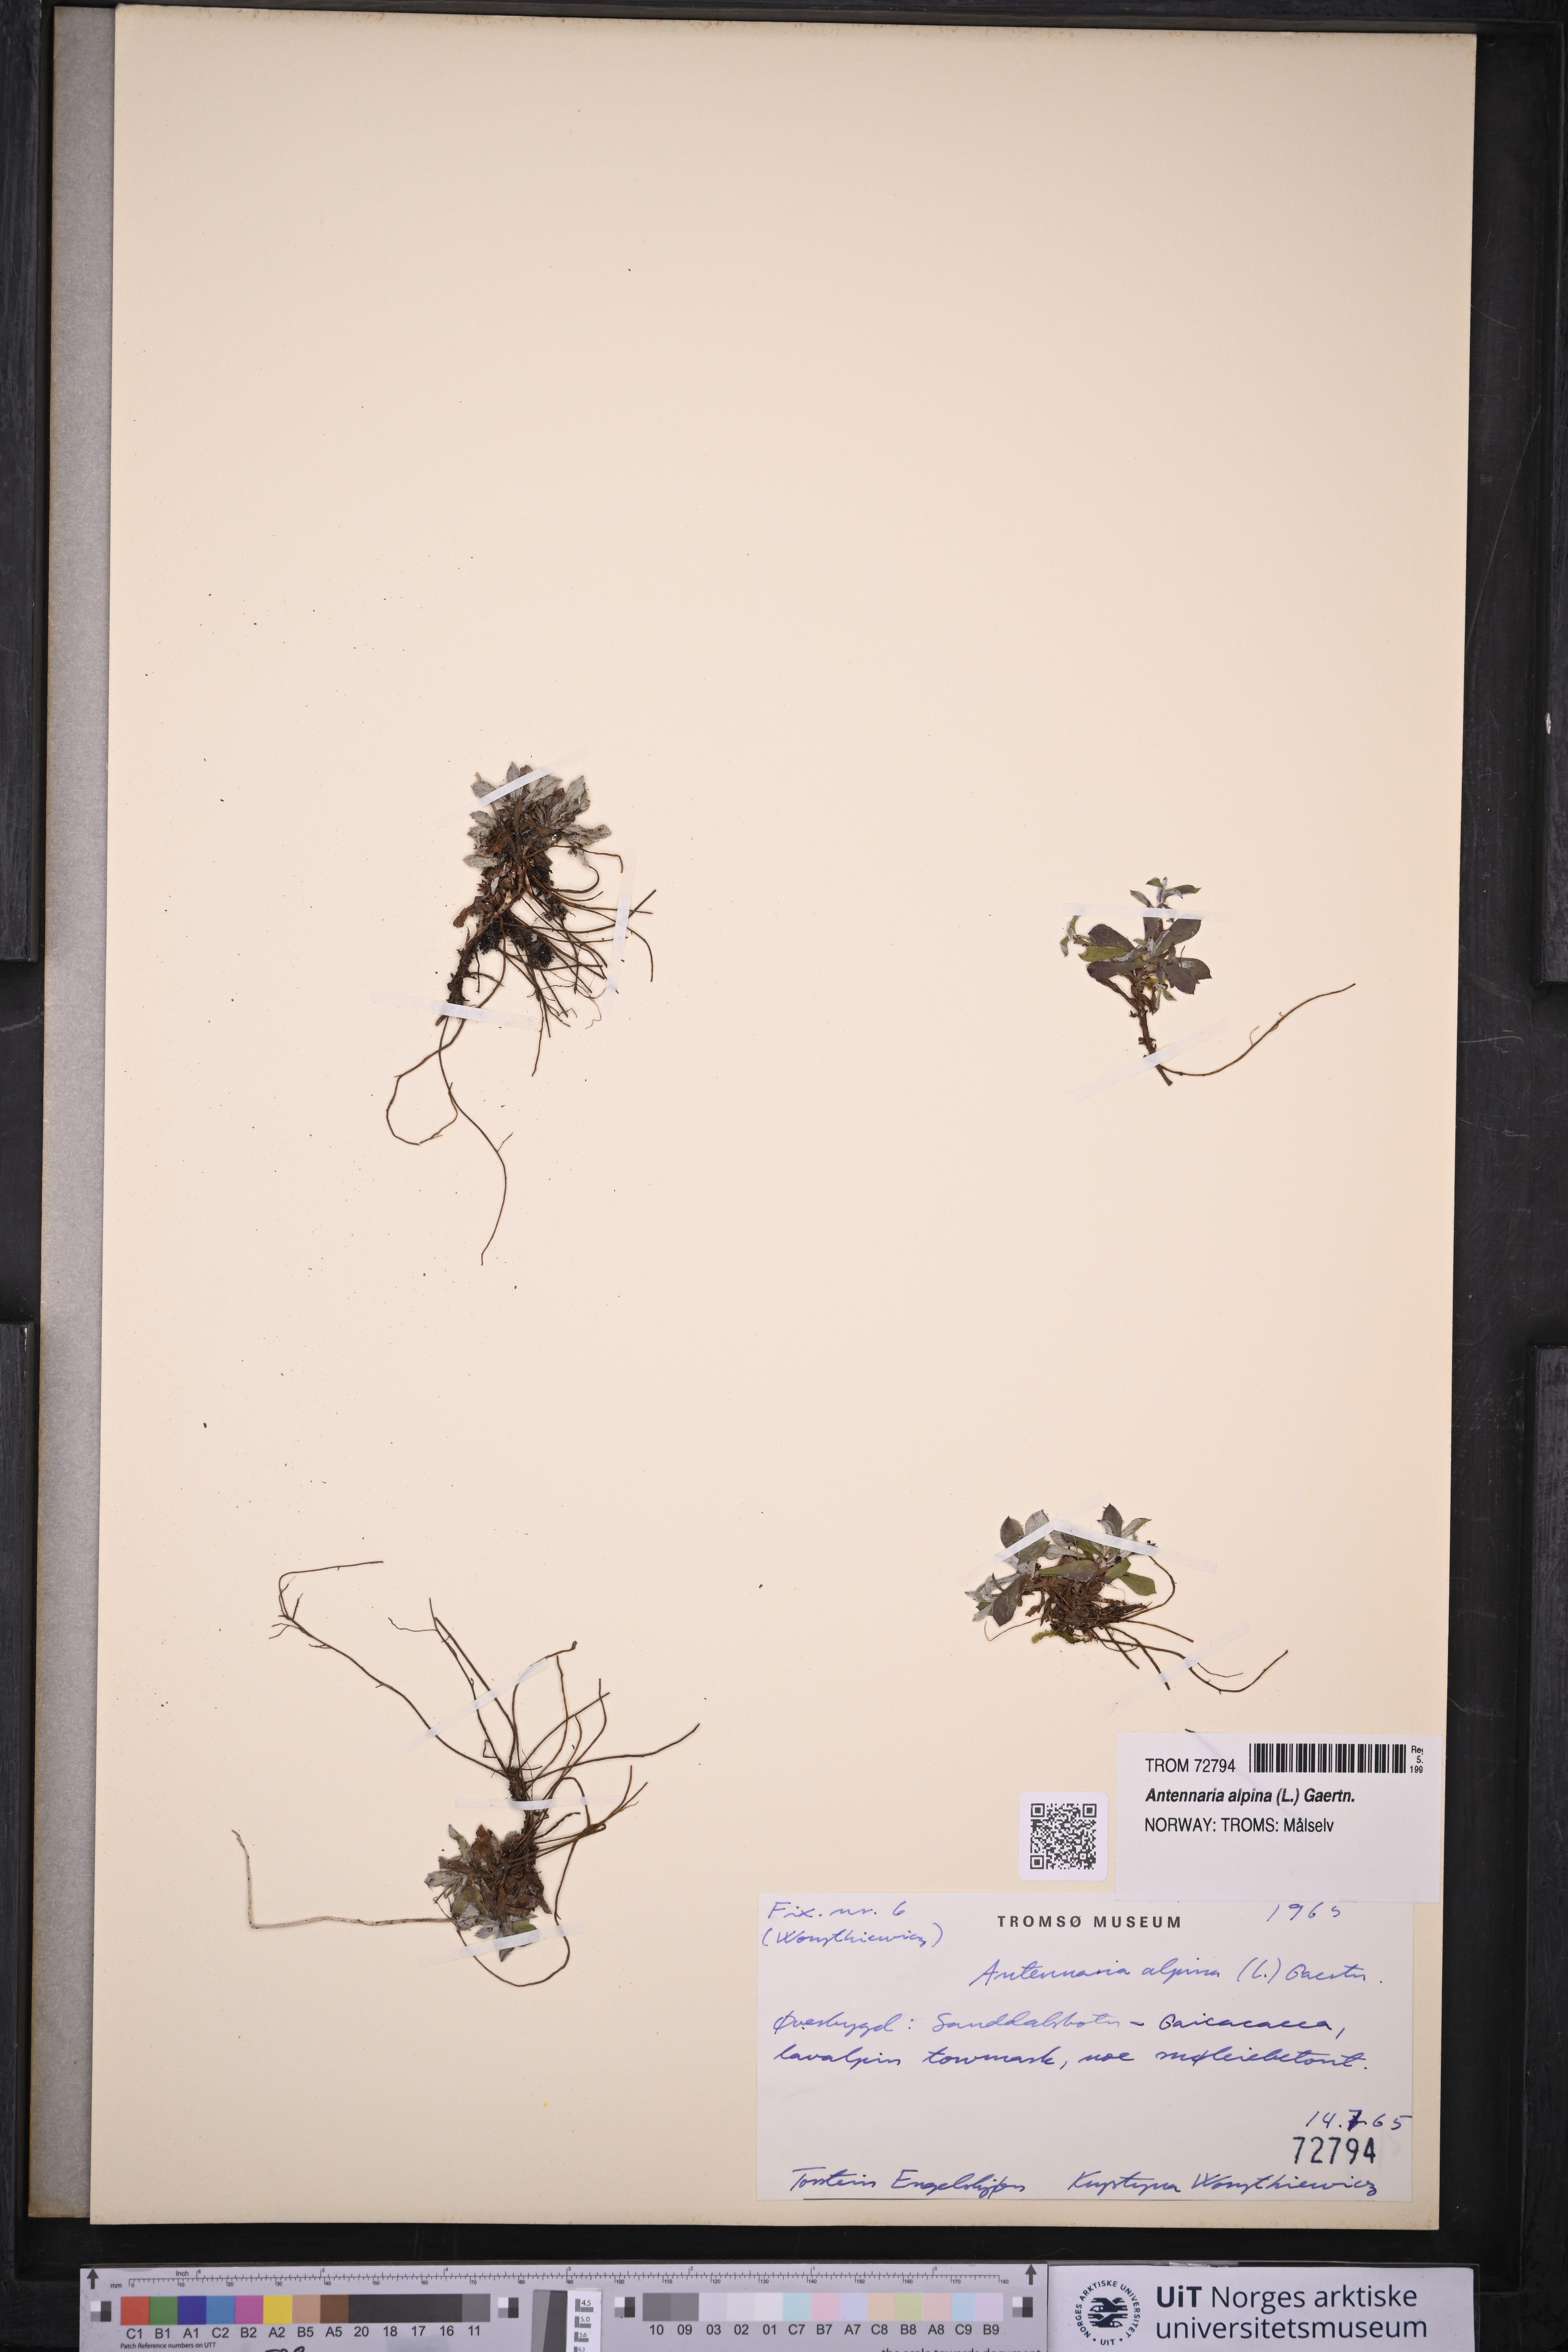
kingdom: Plantae
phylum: Tracheophyta
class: Magnoliopsida
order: Asterales
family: Asteraceae
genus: Antennaria
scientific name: Antennaria alpina
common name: Alpine pussytoes
